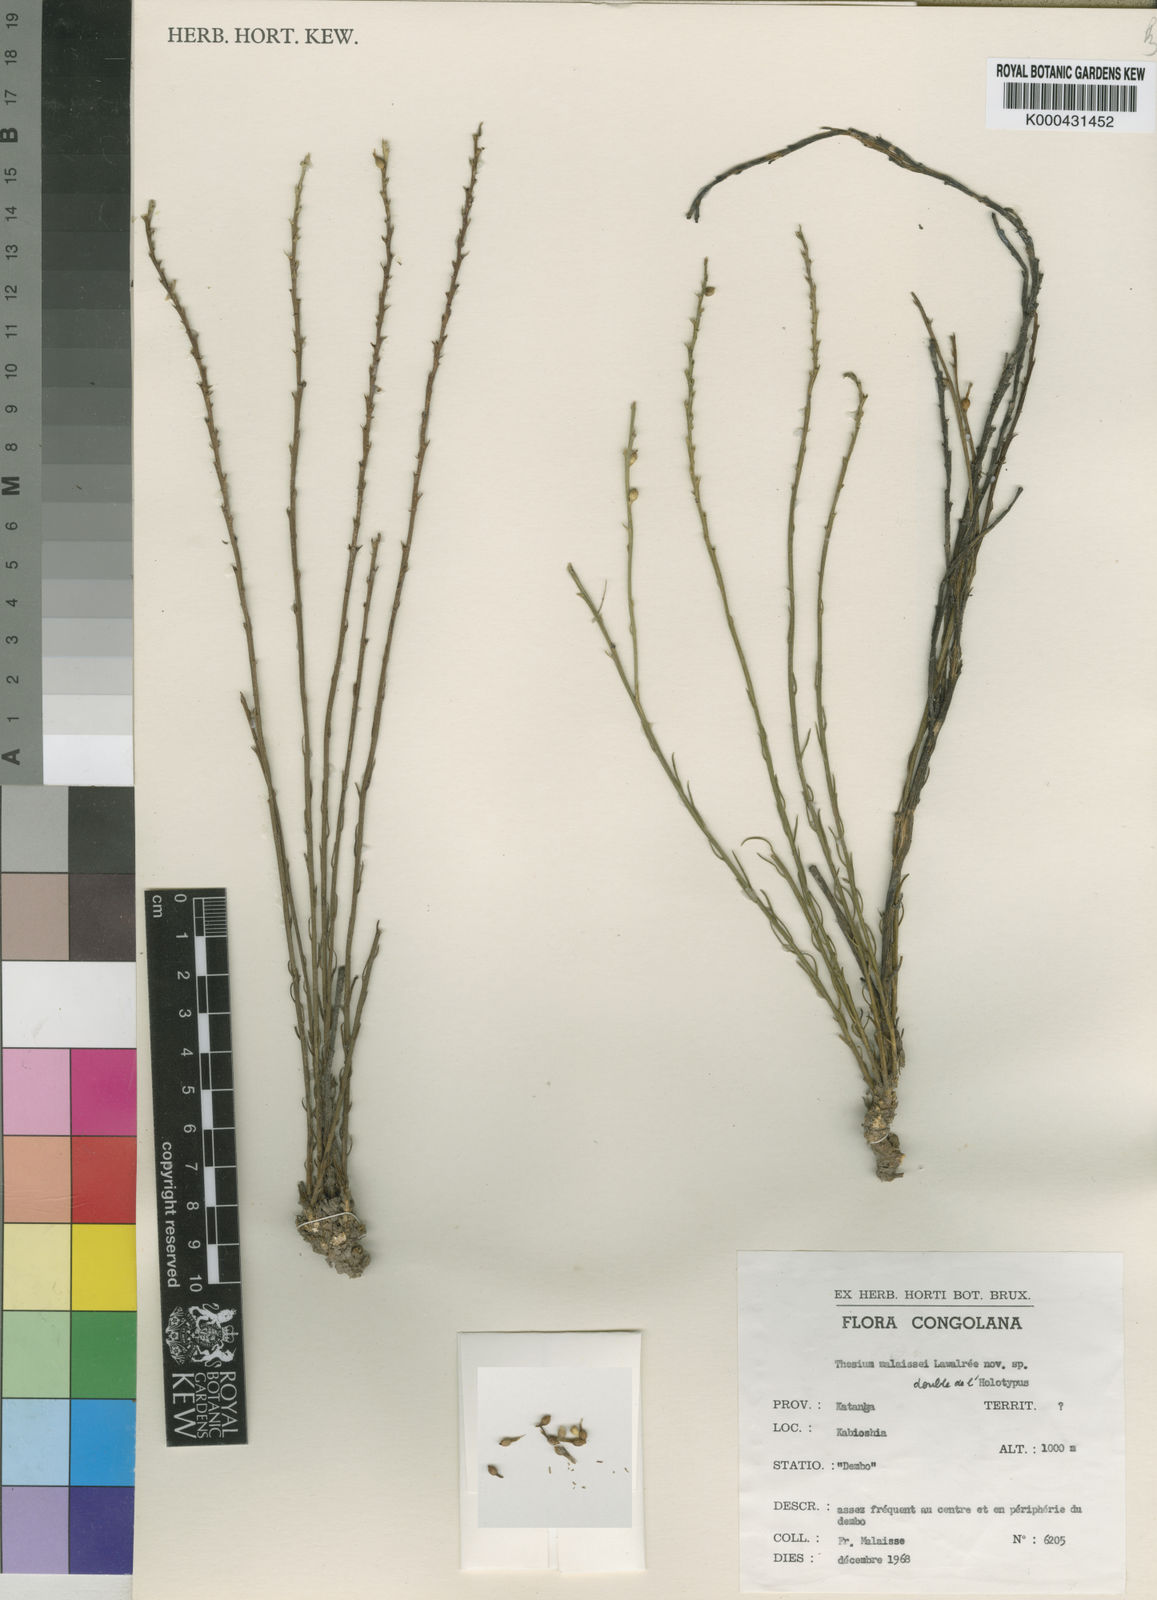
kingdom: Plantae
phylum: Tracheophyta
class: Magnoliopsida
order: Santalales
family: Thesiaceae
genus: Thesium
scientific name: Thesium
